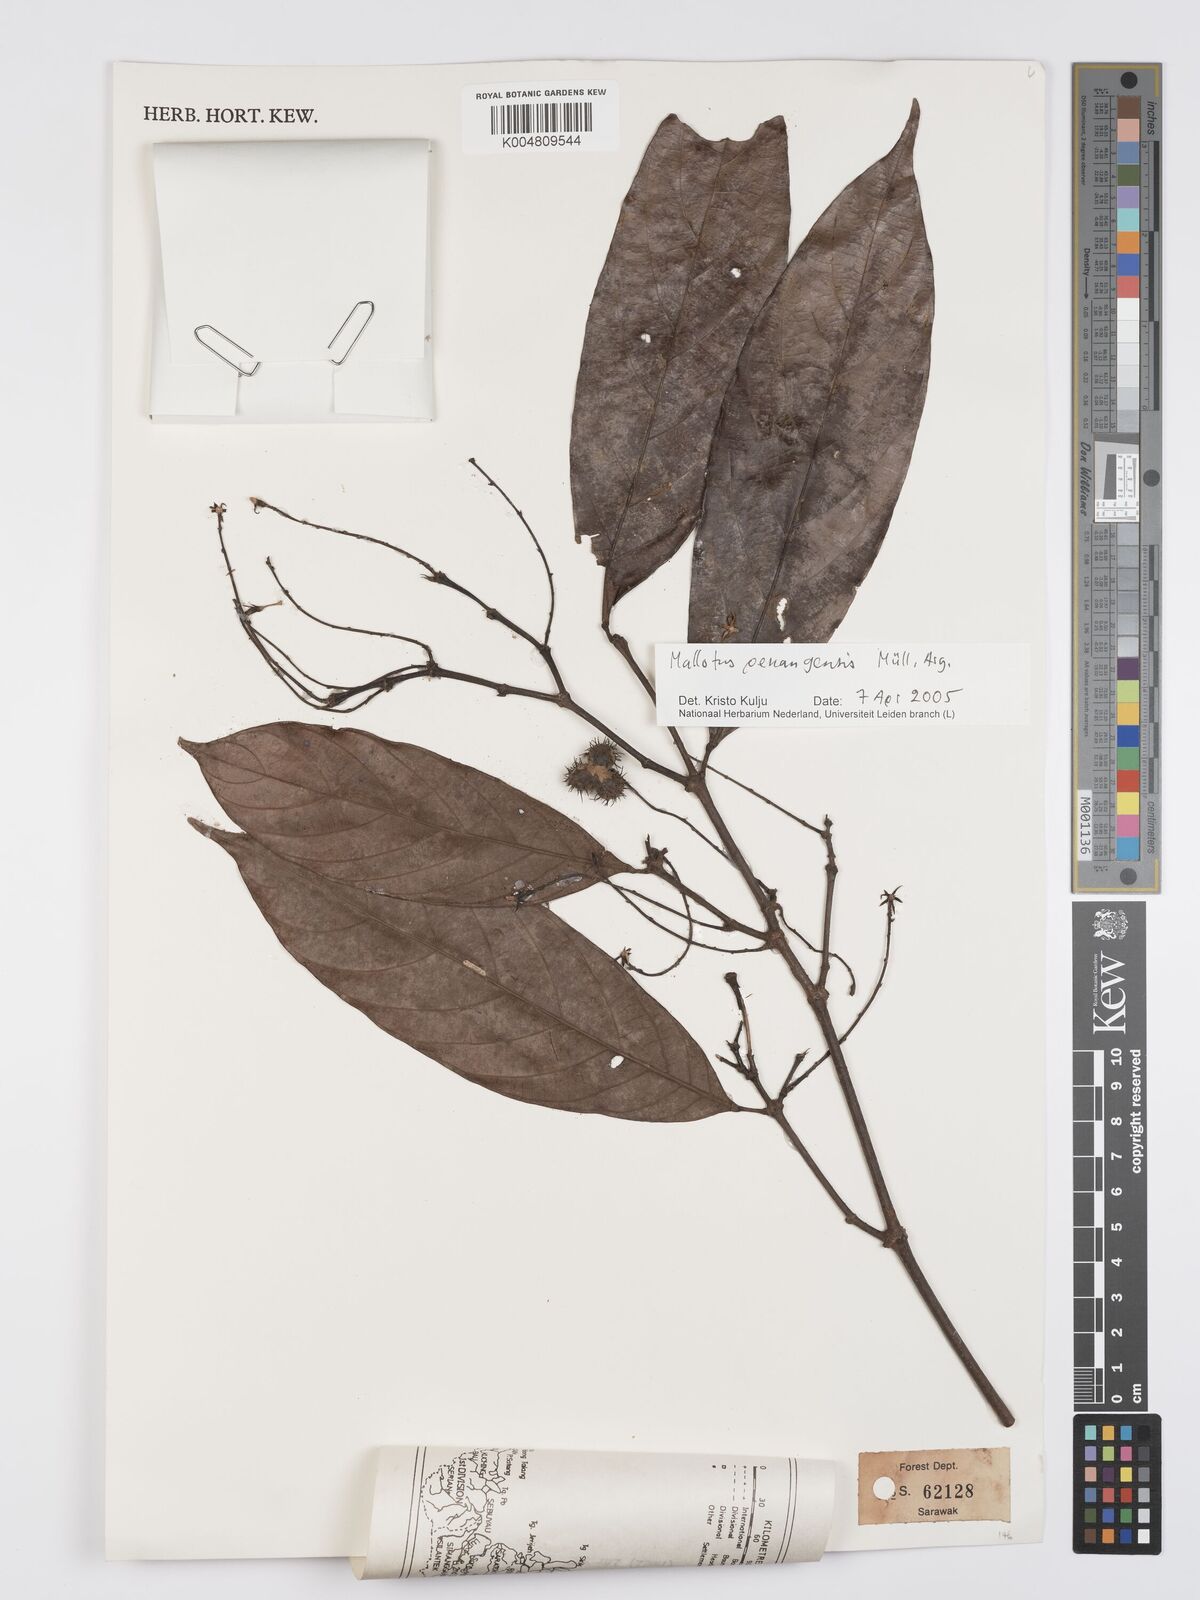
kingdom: Plantae
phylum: Tracheophyta
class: Magnoliopsida
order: Malpighiales
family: Euphorbiaceae
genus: Hancea
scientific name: Hancea penangensis
